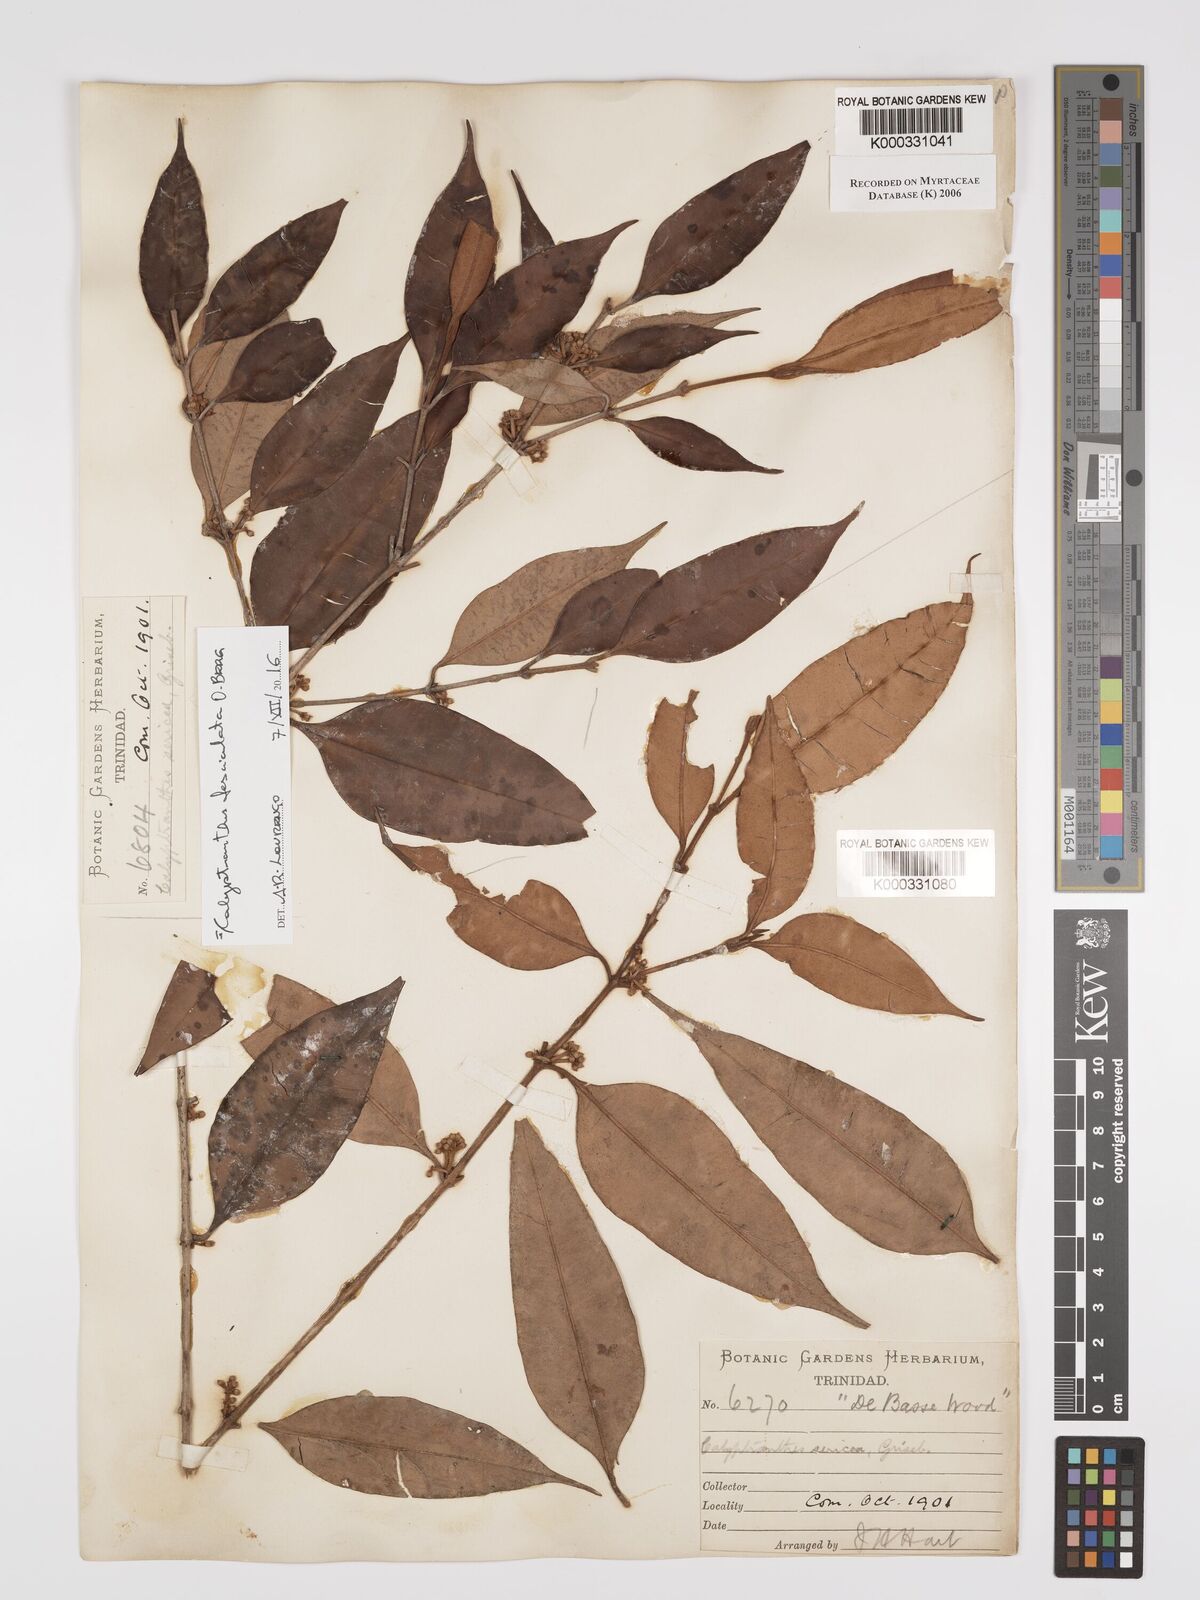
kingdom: Plantae
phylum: Tracheophyta
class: Magnoliopsida
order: Myrtales
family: Myrtaceae
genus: Myrcia
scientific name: Myrcia fasciculata
